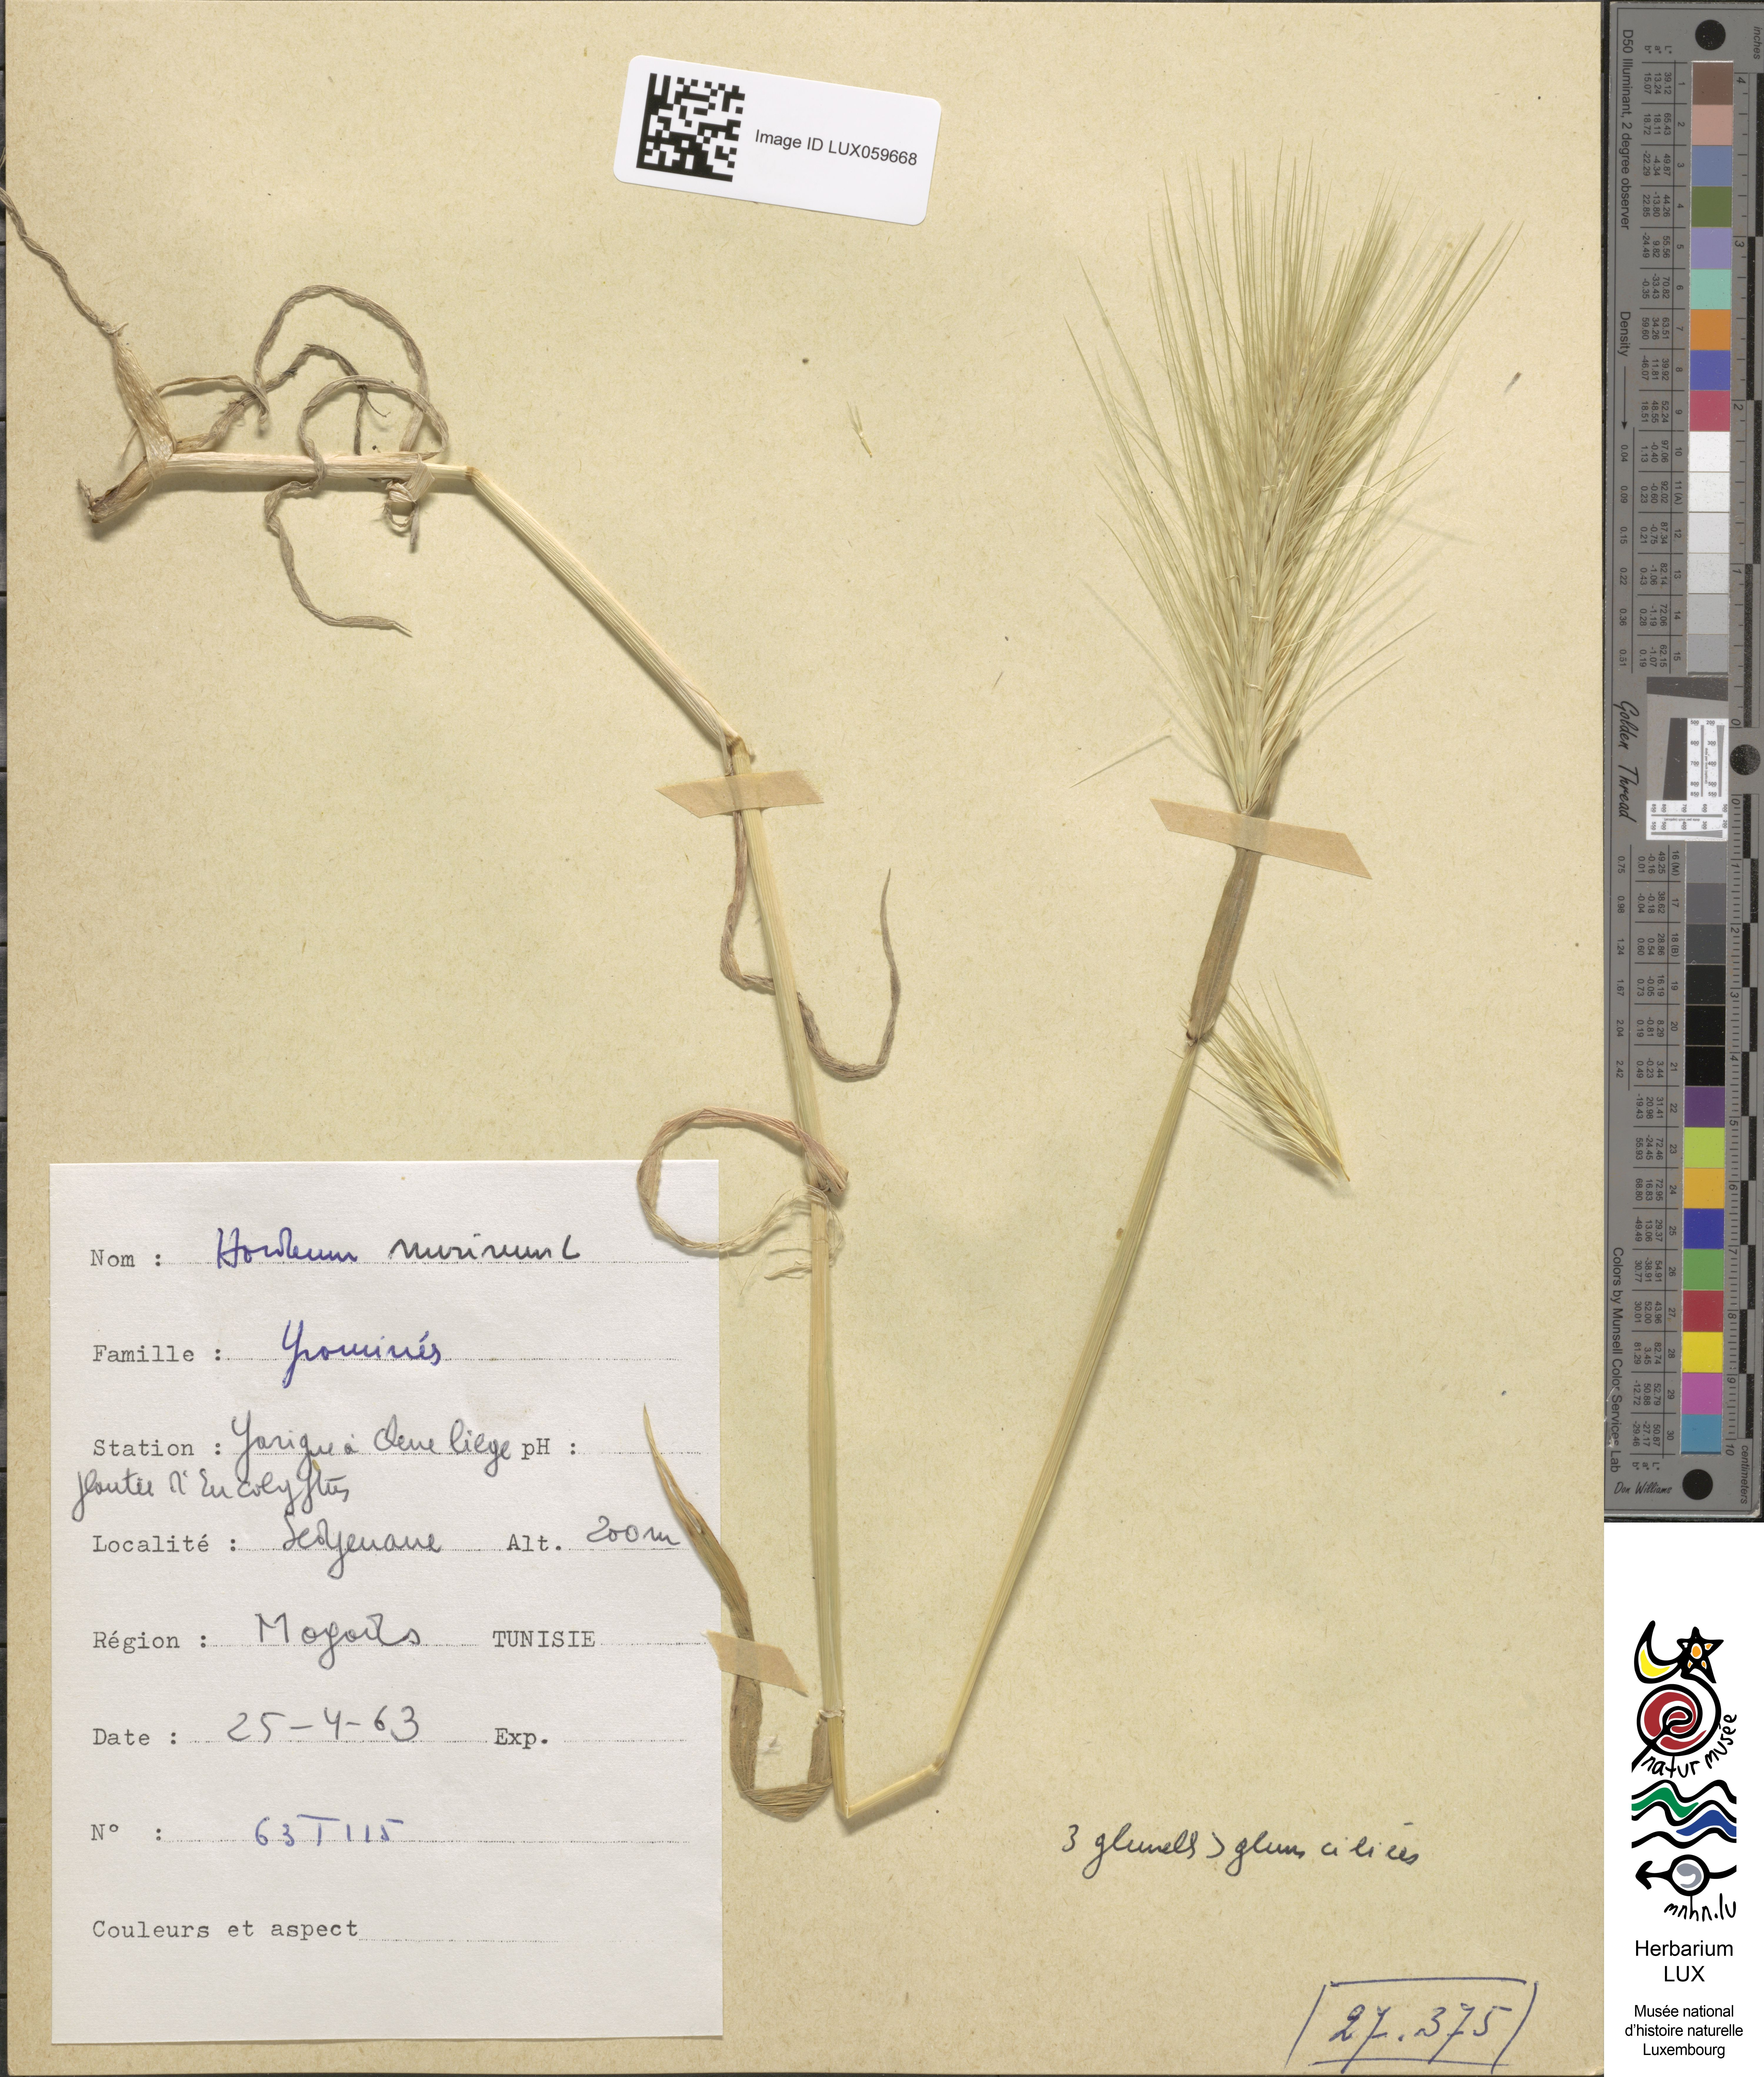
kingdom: Plantae
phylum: Tracheophyta
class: Liliopsida
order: Poales
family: Poaceae
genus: Hordeum
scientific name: Hordeum murinum
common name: Wall barley
